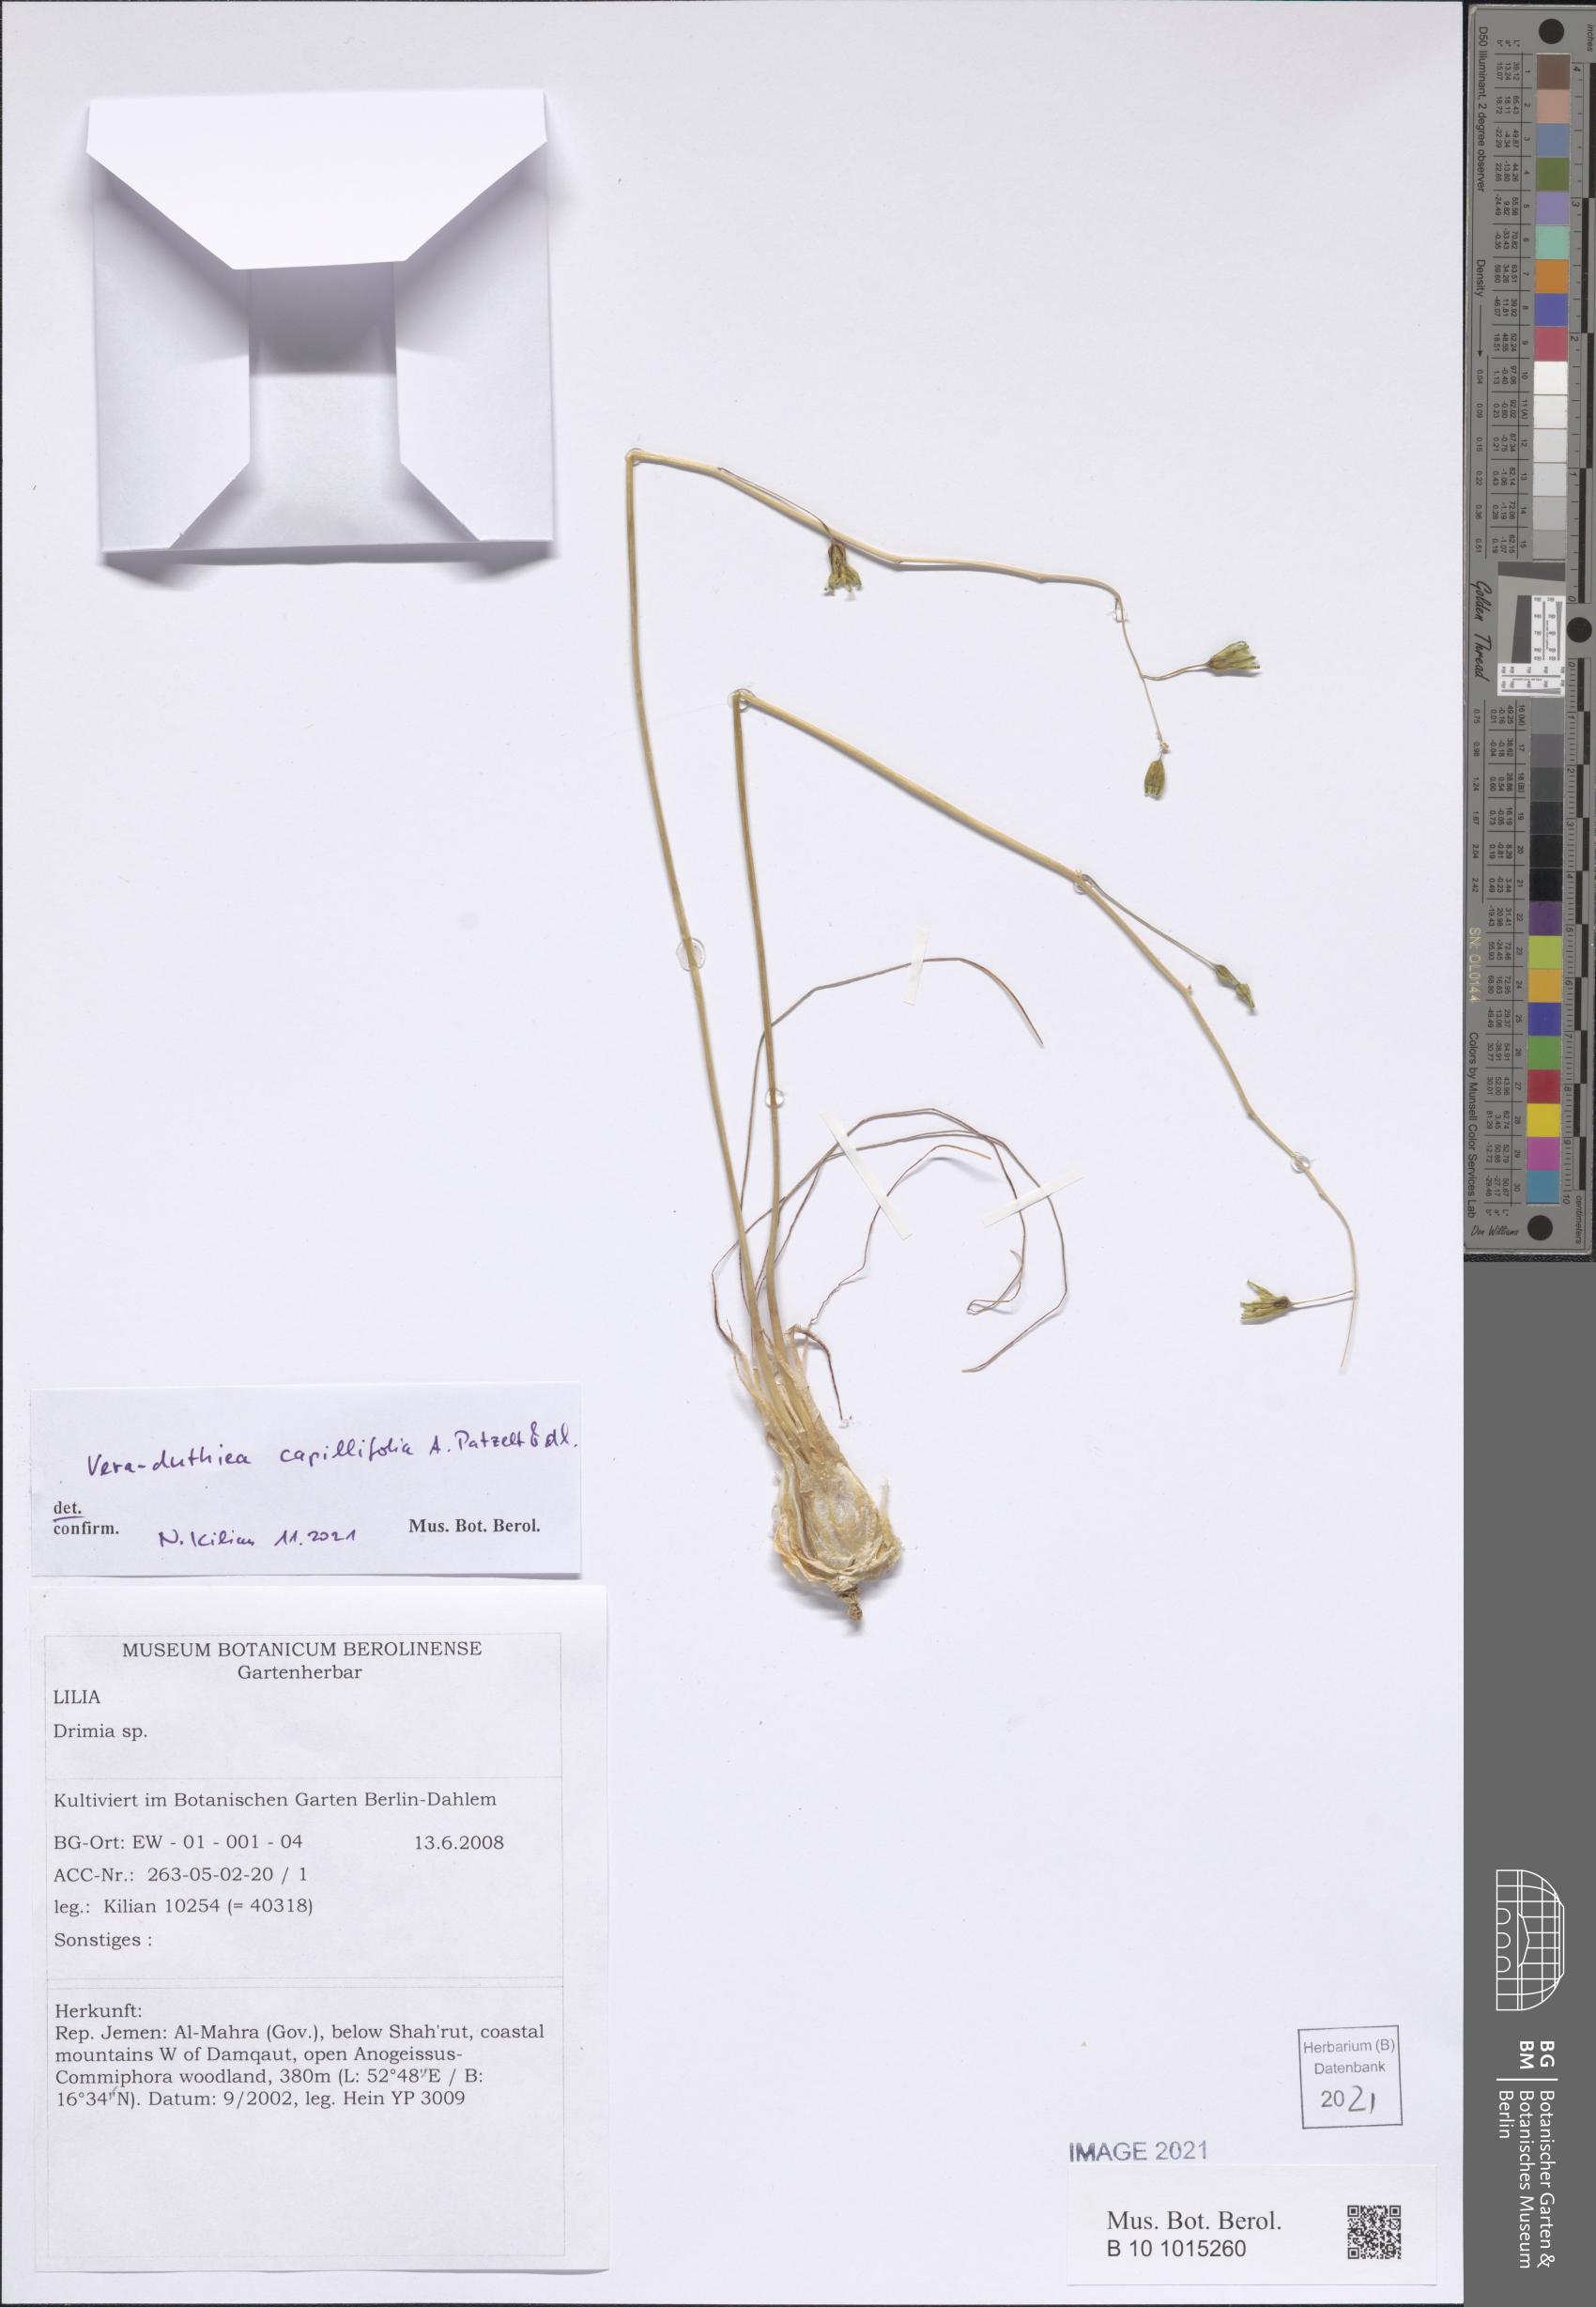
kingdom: Plantae
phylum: Tracheophyta
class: Liliopsida
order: Asparagales
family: Asparagaceae
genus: Drimia
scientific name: Drimia Vera-duthiea capillifolia
